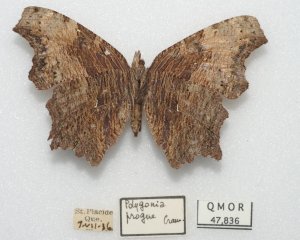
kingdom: Animalia
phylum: Arthropoda
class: Insecta
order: Lepidoptera
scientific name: Lepidoptera
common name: Butterflies
